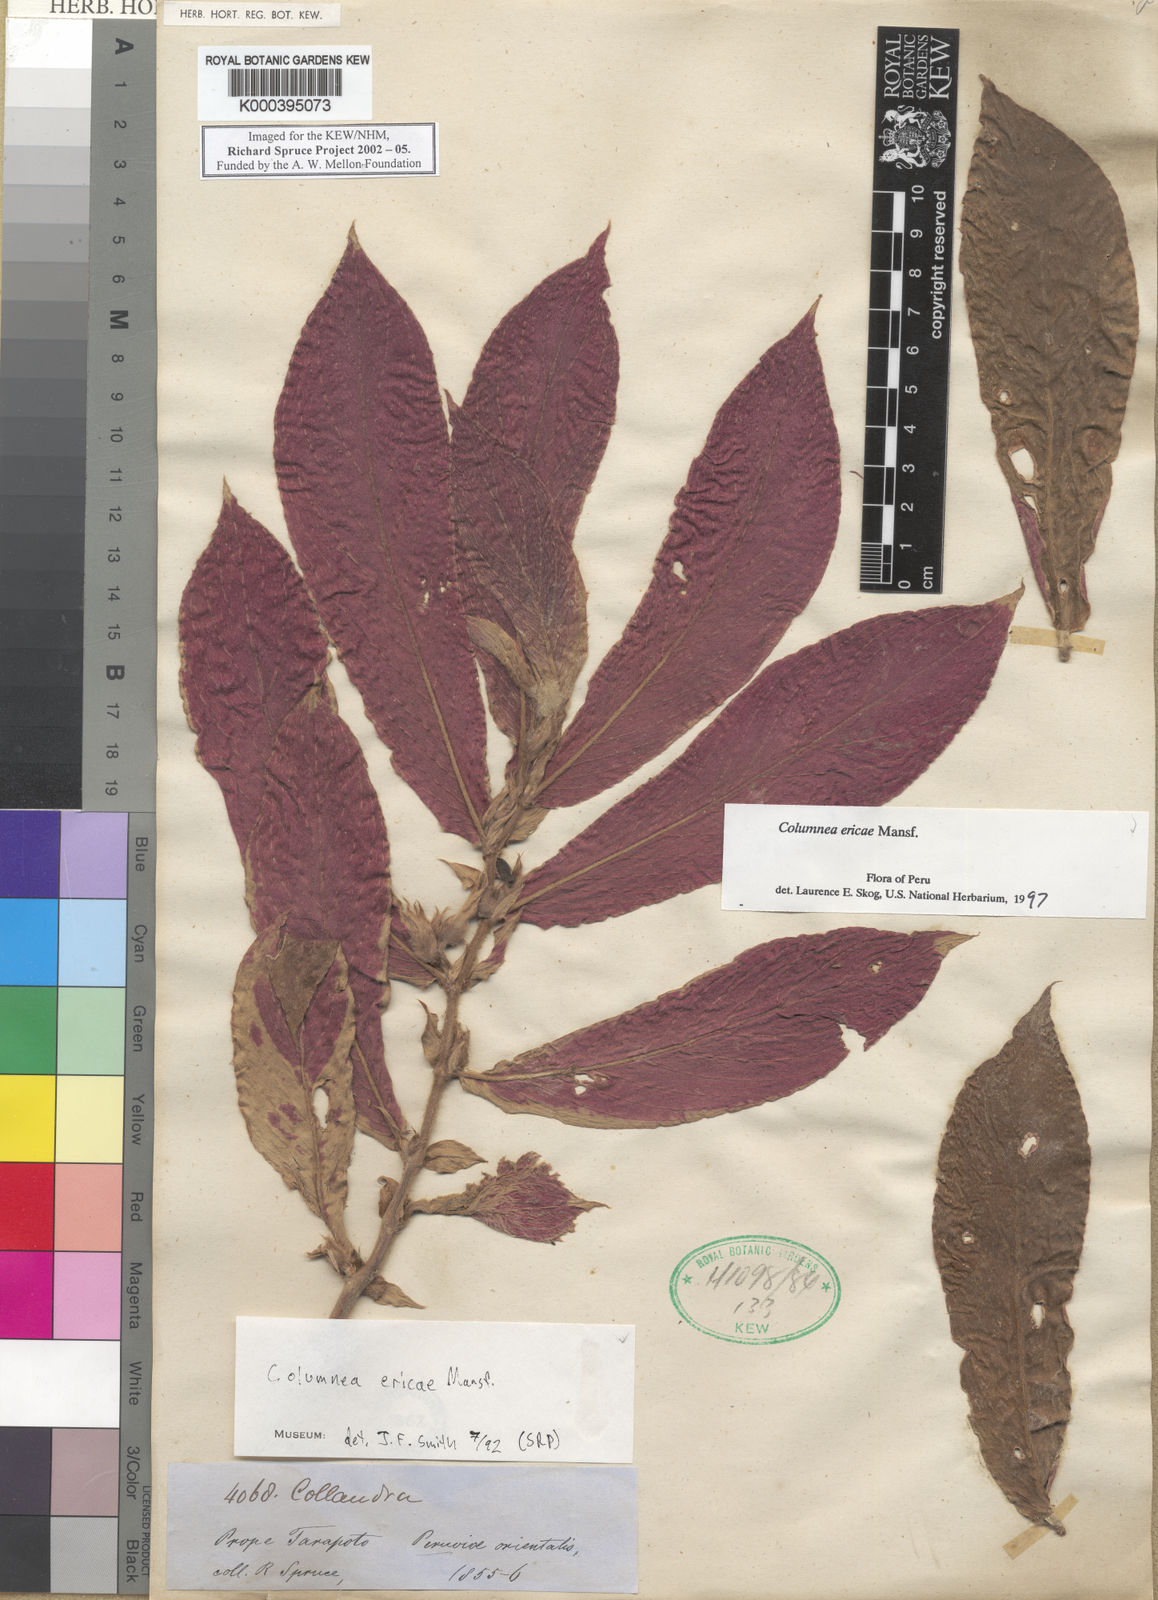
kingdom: Plantae
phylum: Tracheophyta
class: Magnoliopsida
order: Lamiales
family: Gesneriaceae
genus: Columnea
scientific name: Columnea ericae
